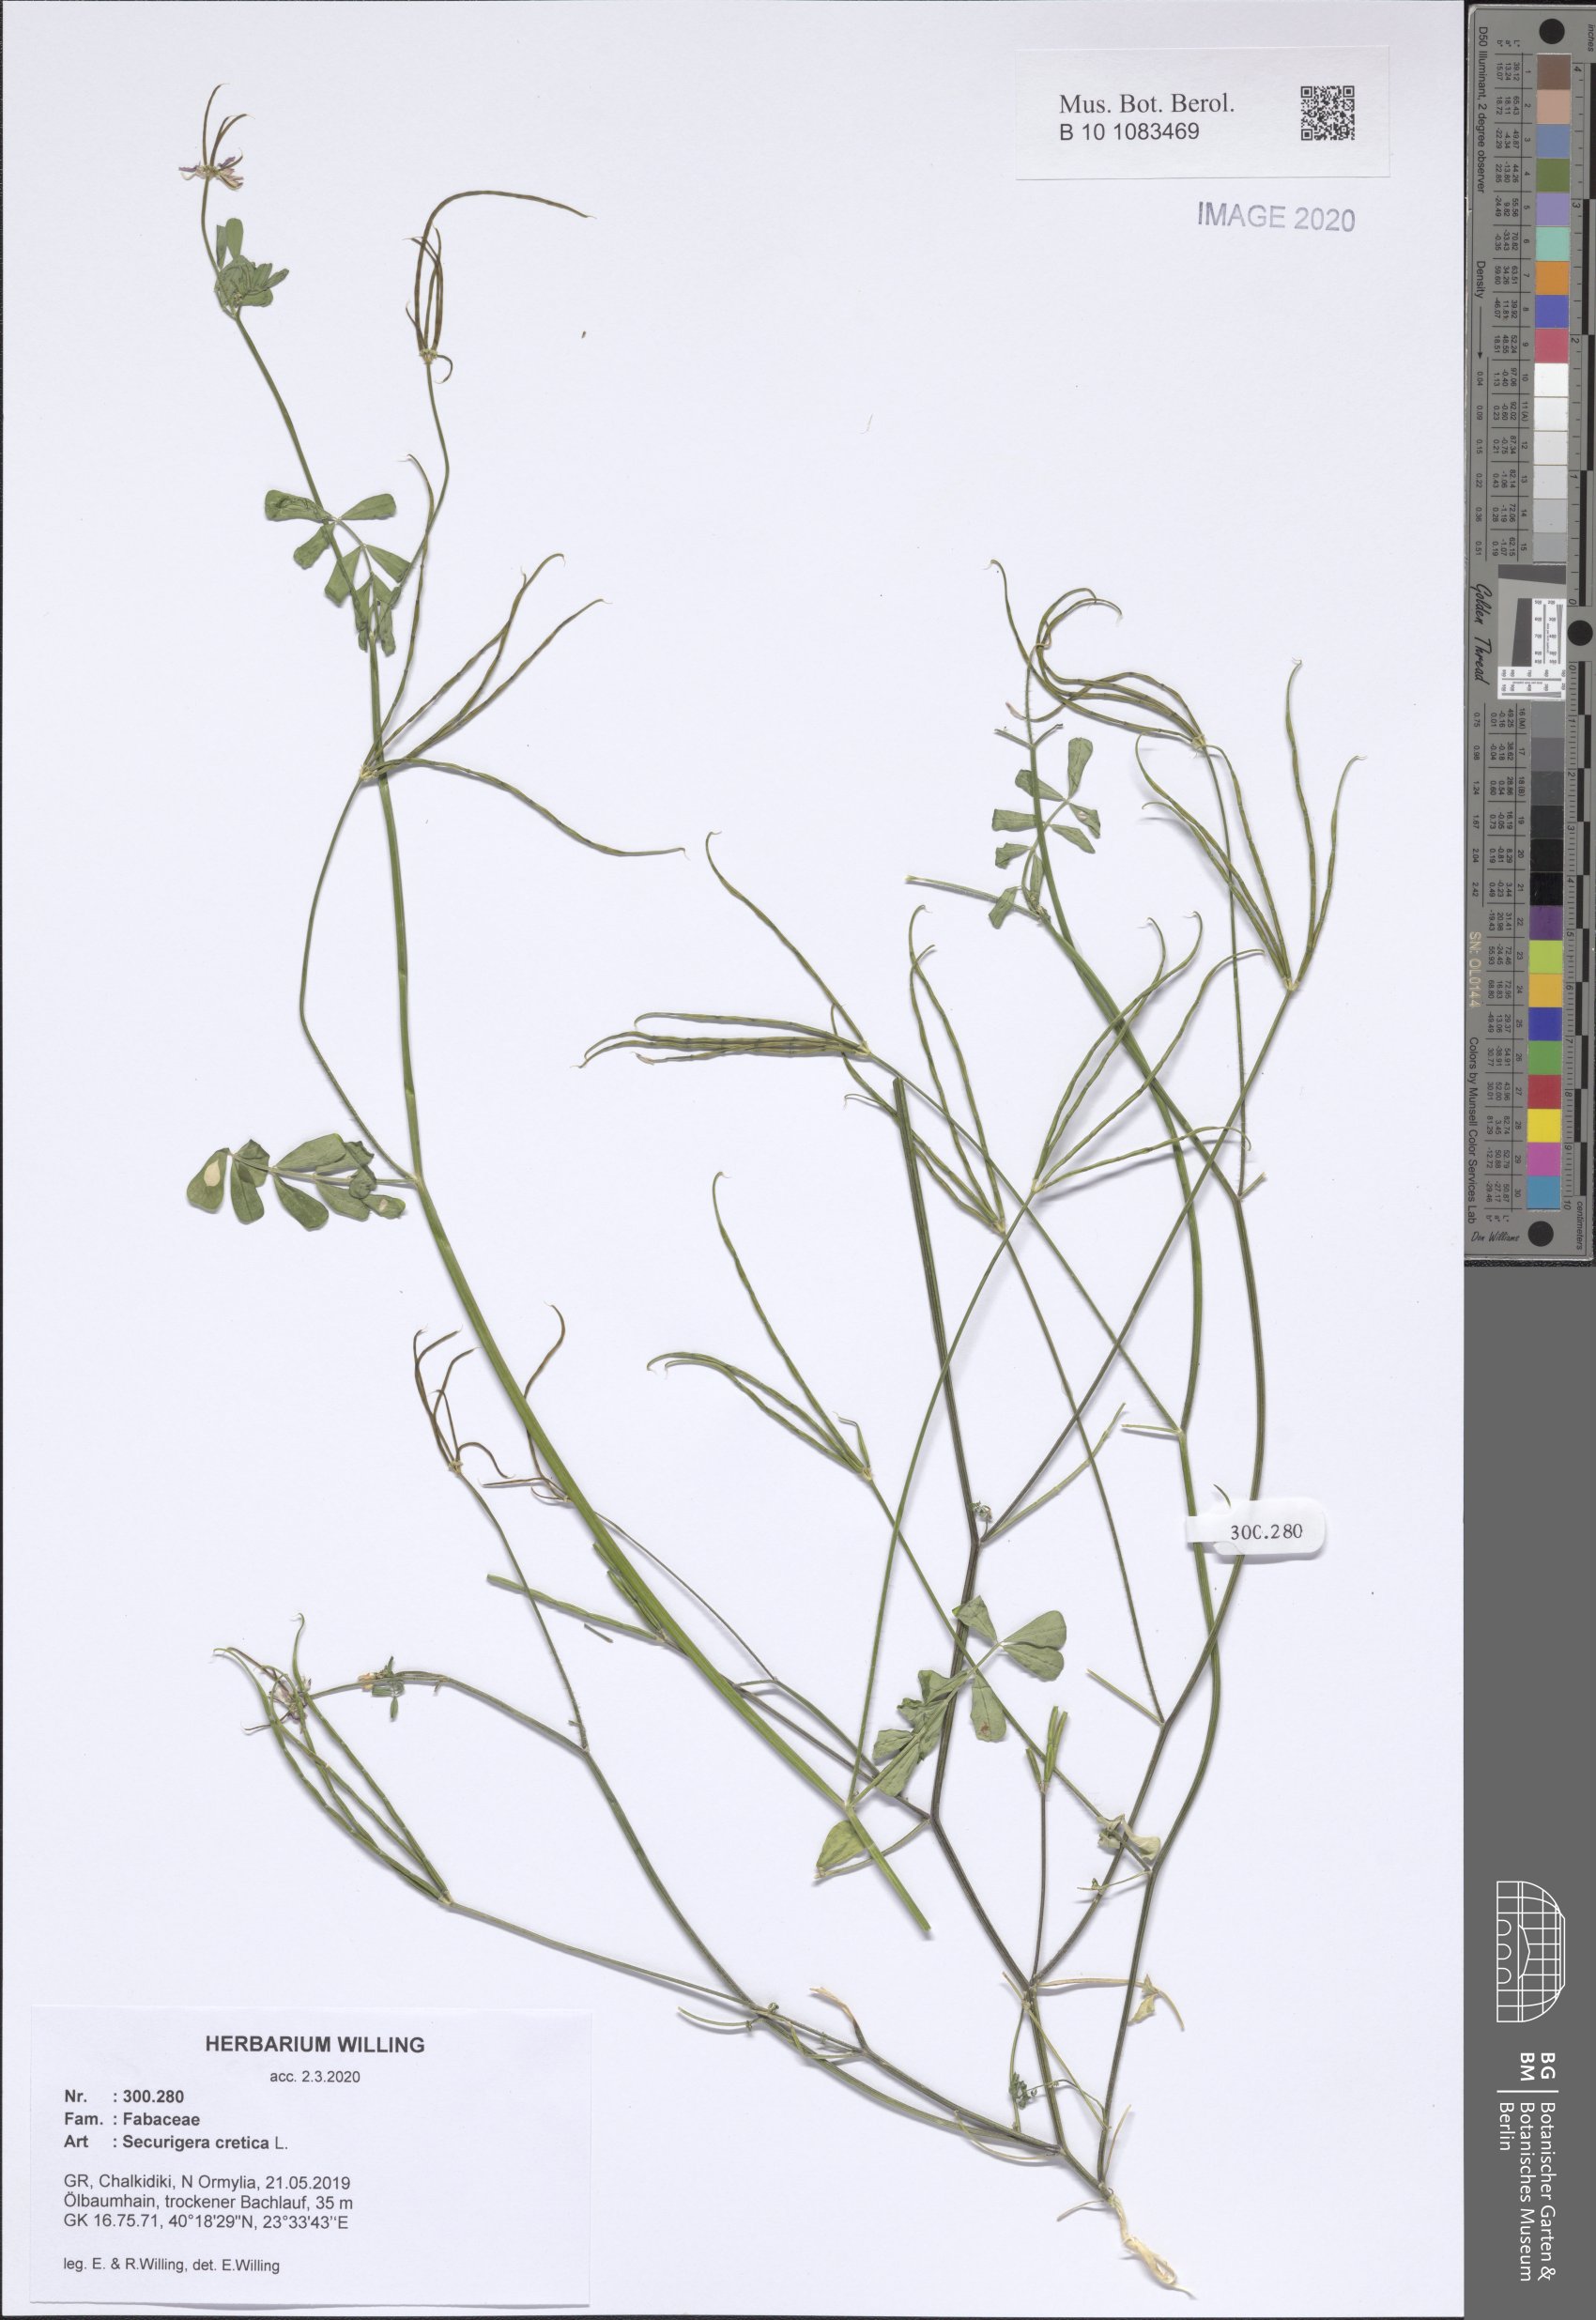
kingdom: Plantae
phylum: Tracheophyta
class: Magnoliopsida
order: Fabales
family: Fabaceae
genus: Coronilla
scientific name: Coronilla cretica
